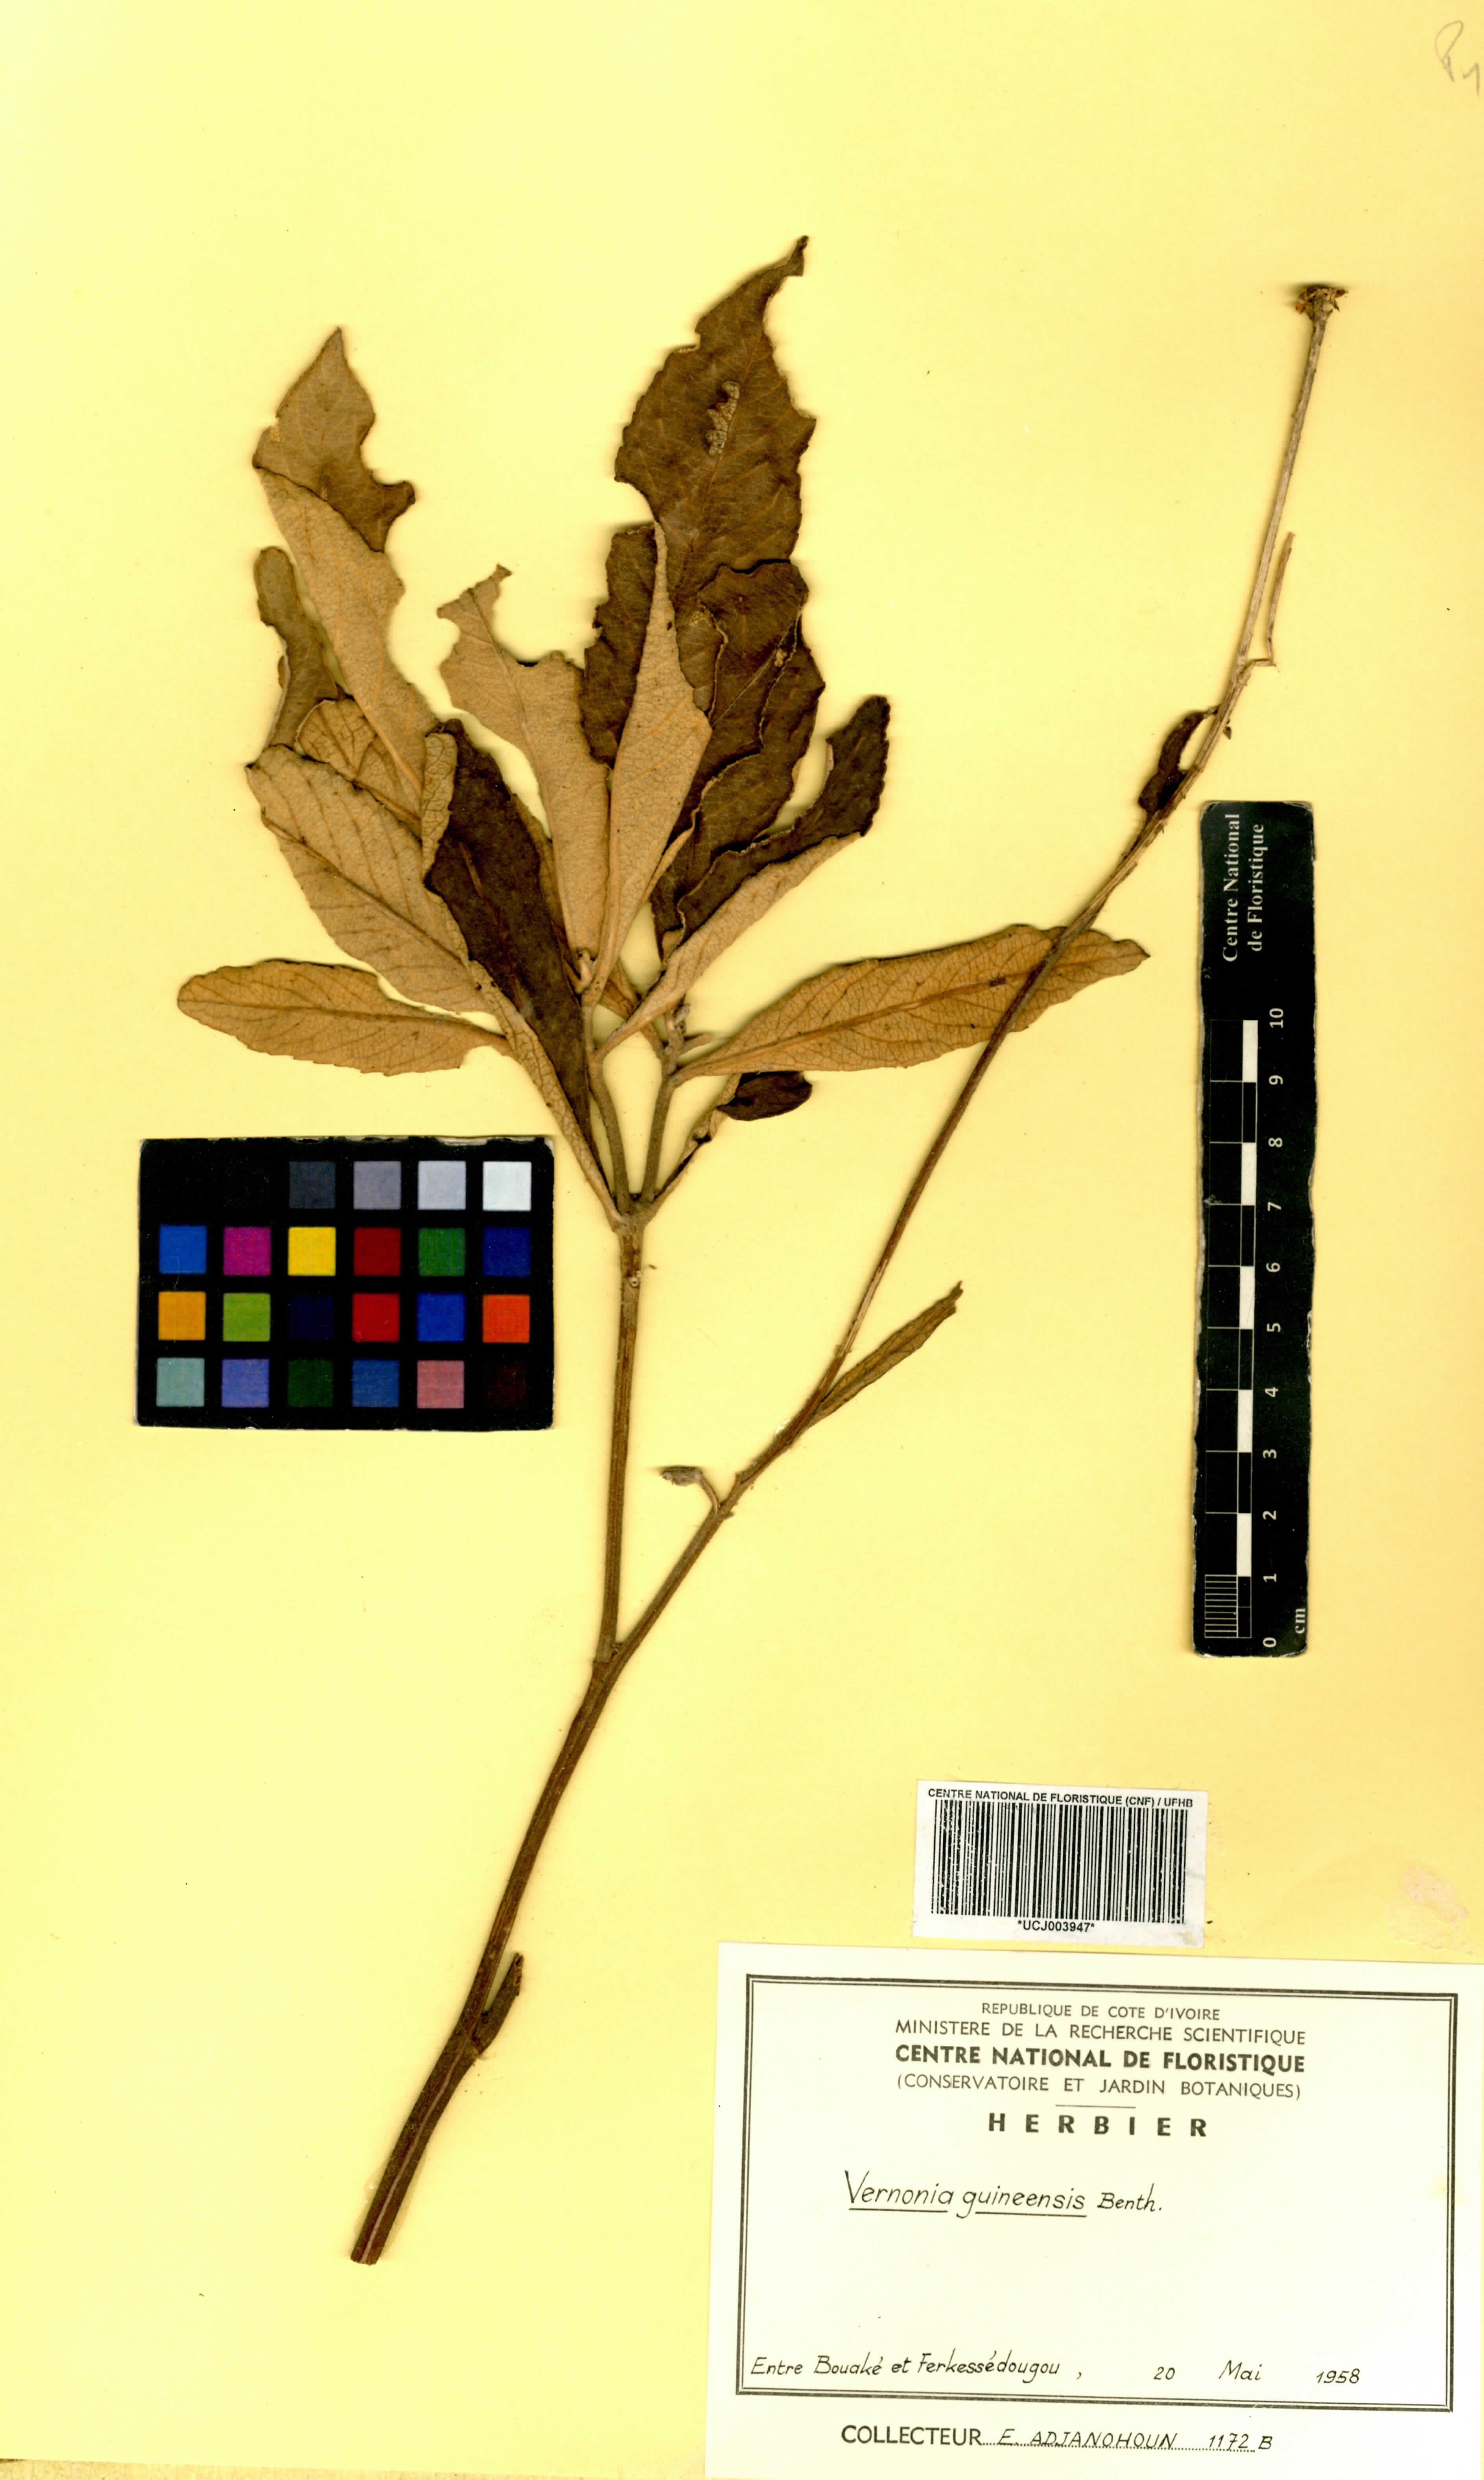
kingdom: Plantae
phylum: Tracheophyta
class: Magnoliopsida
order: Asterales
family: Asteraceae
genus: Baccharoides
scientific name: Baccharoides guineensis
